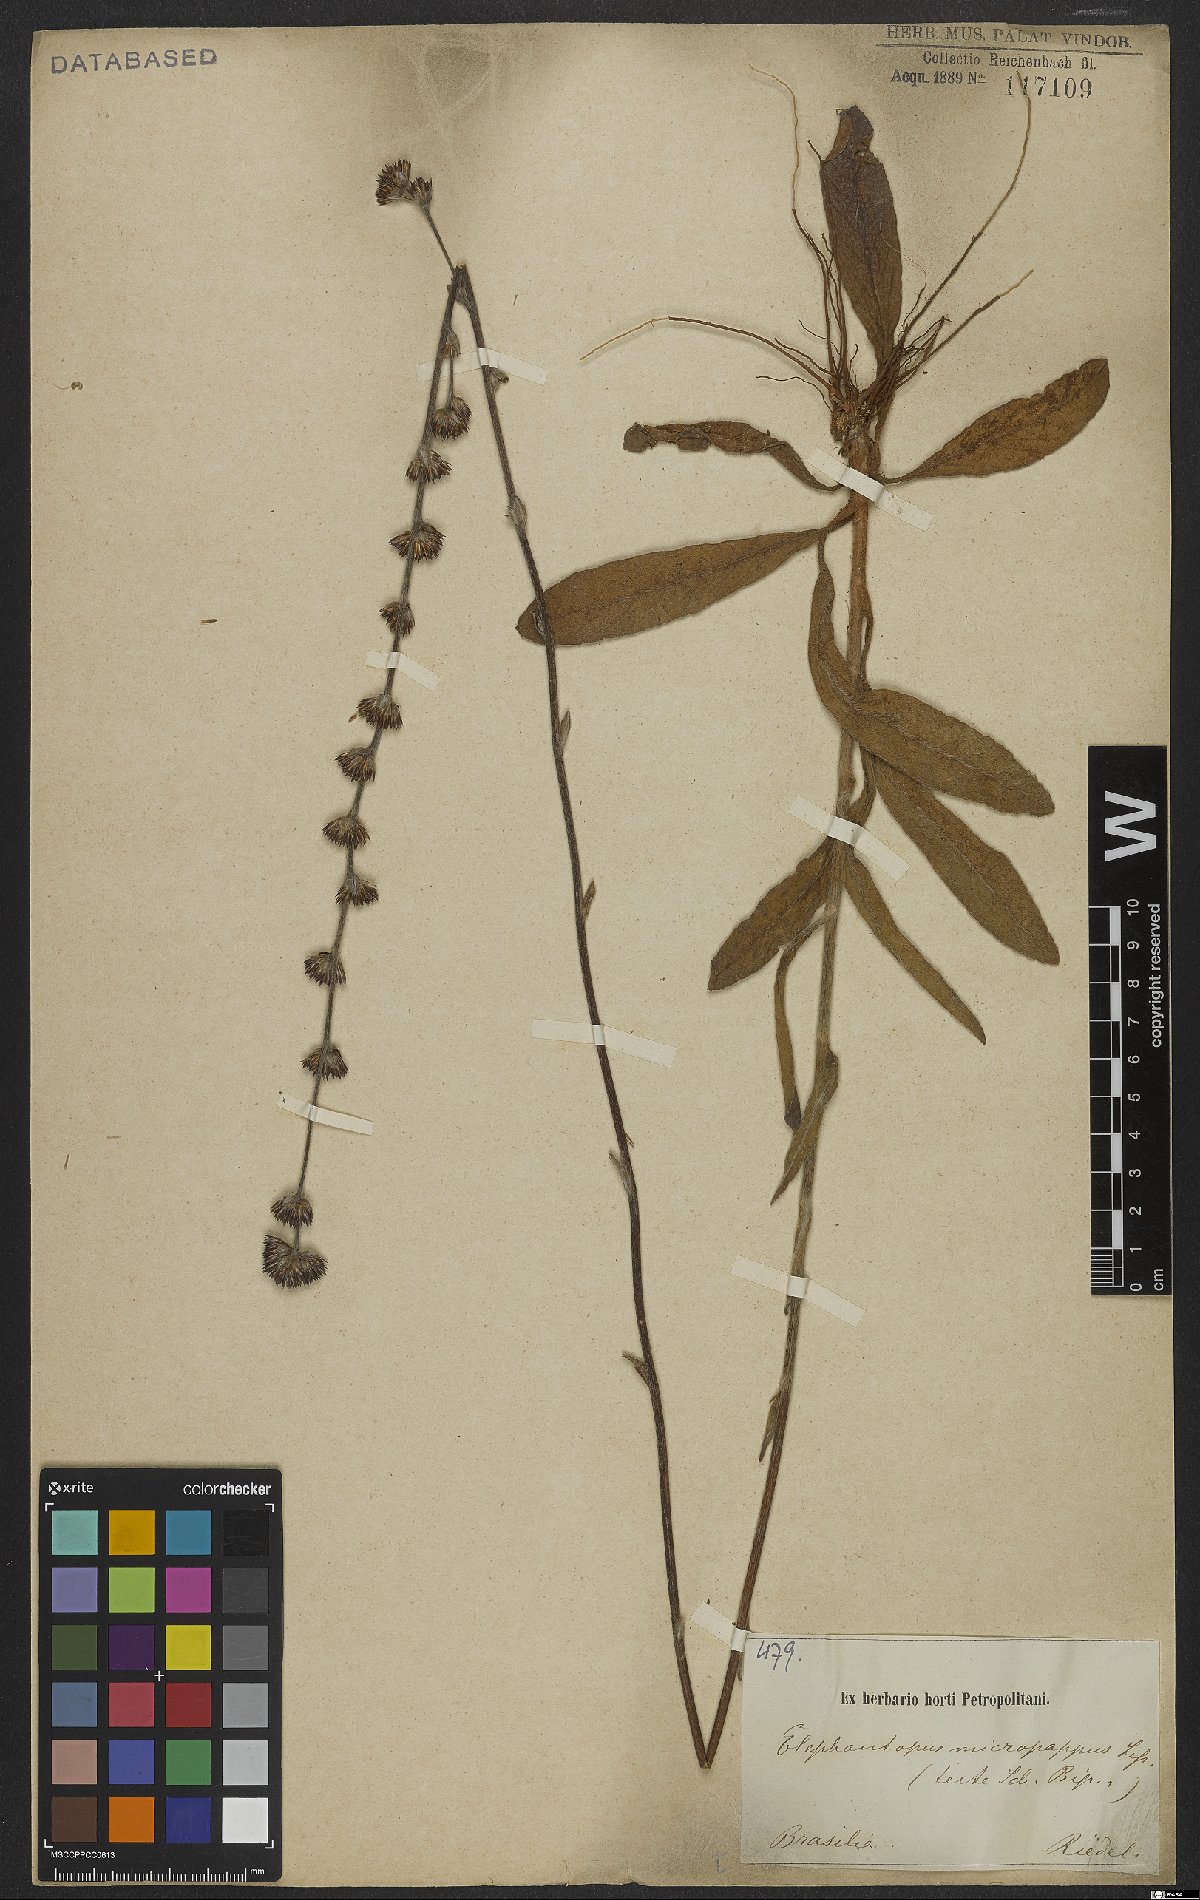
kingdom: Plantae
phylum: Tracheophyta
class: Magnoliopsida
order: Asterales
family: Asteraceae
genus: Elephantopus
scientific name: Elephantopus micropappus
